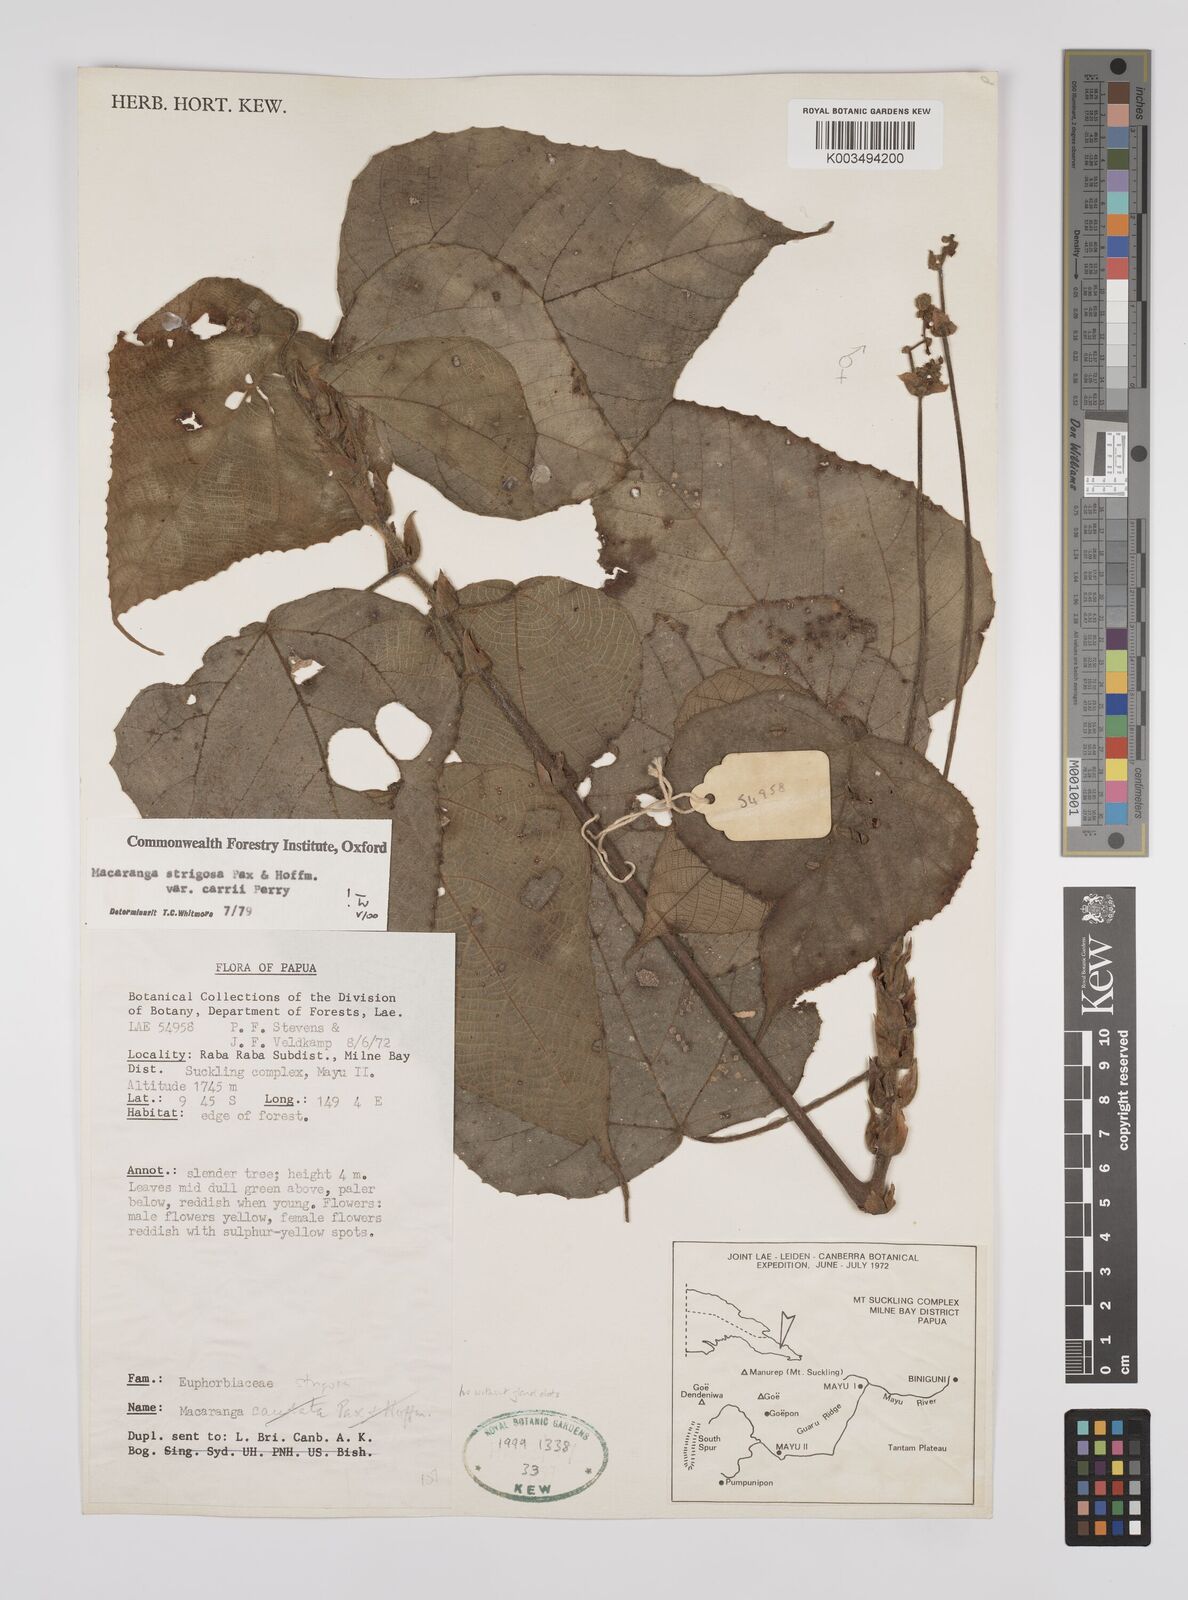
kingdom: Plantae
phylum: Tracheophyta
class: Magnoliopsida
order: Malpighiales
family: Euphorbiaceae
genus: Macaranga
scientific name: Macaranga strigosa
